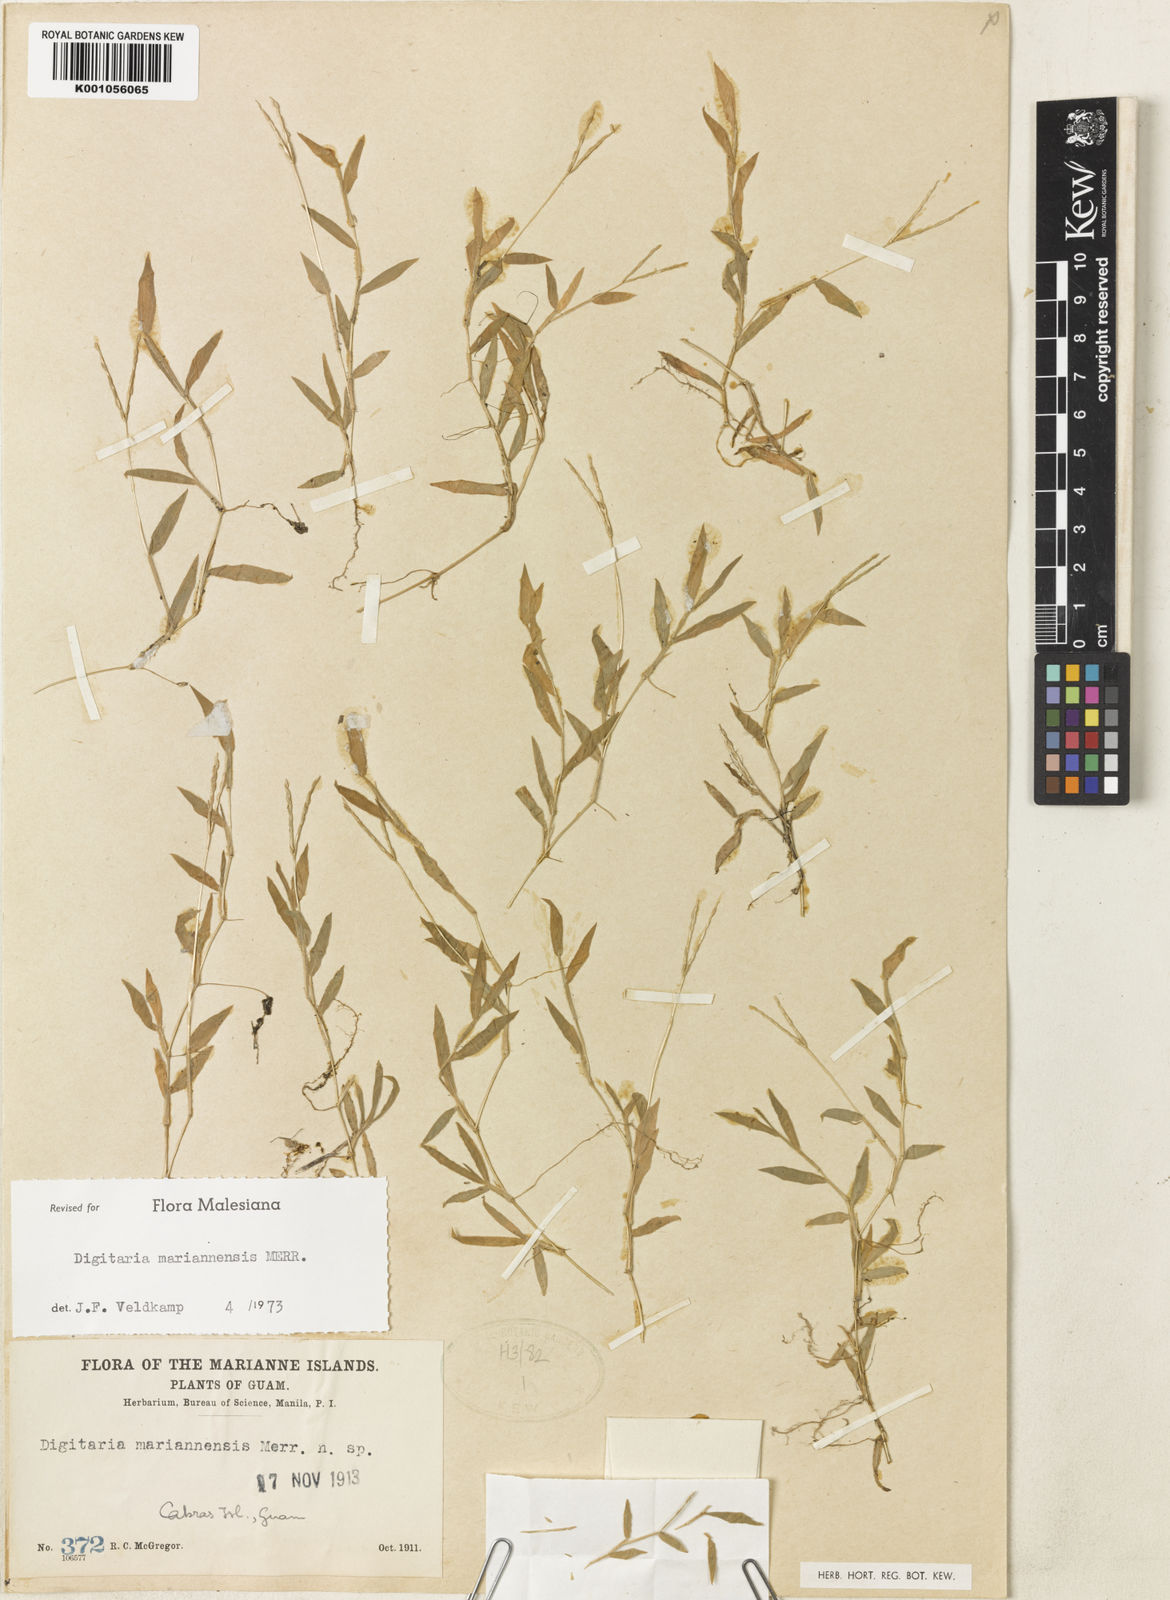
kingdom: Plantae
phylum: Tracheophyta
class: Liliopsida
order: Poales
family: Poaceae
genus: Digitaria
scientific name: Digitaria mariannensis
